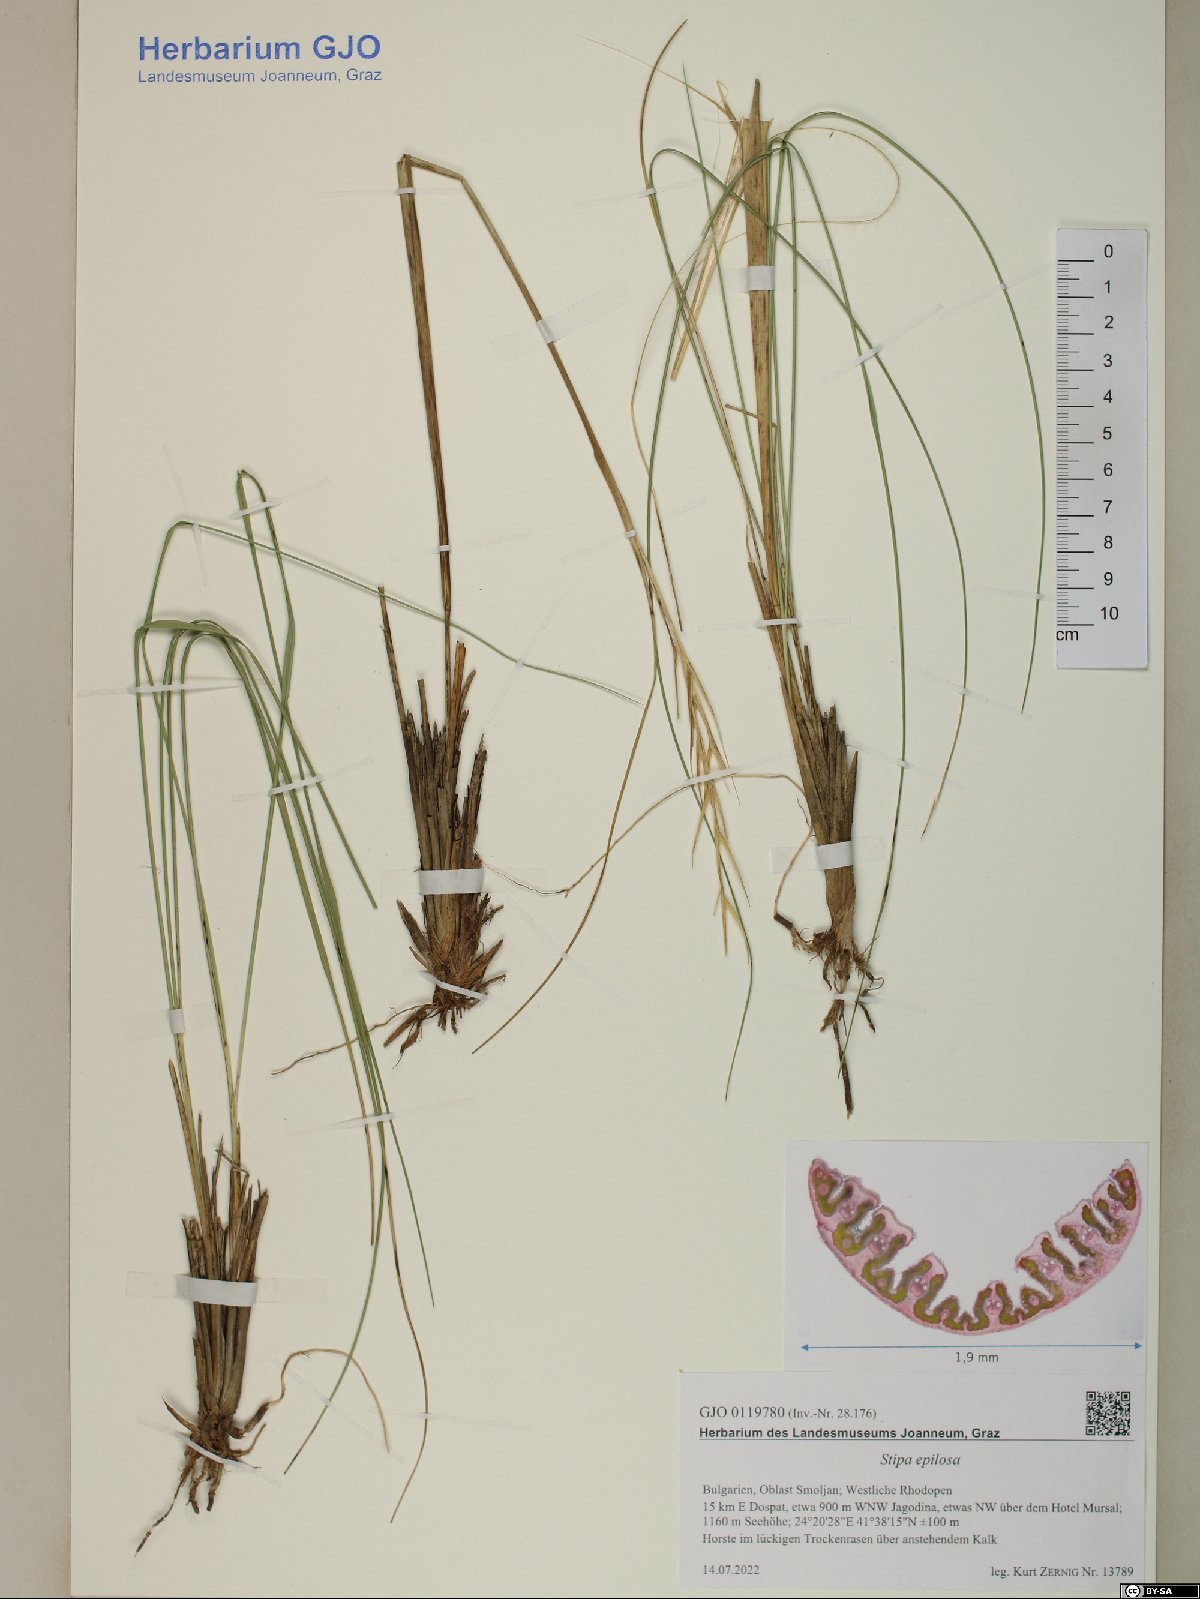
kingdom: Plantae
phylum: Tracheophyta
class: Liliopsida
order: Poales
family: Poaceae
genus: Stipa
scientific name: Stipa pulcherrima
